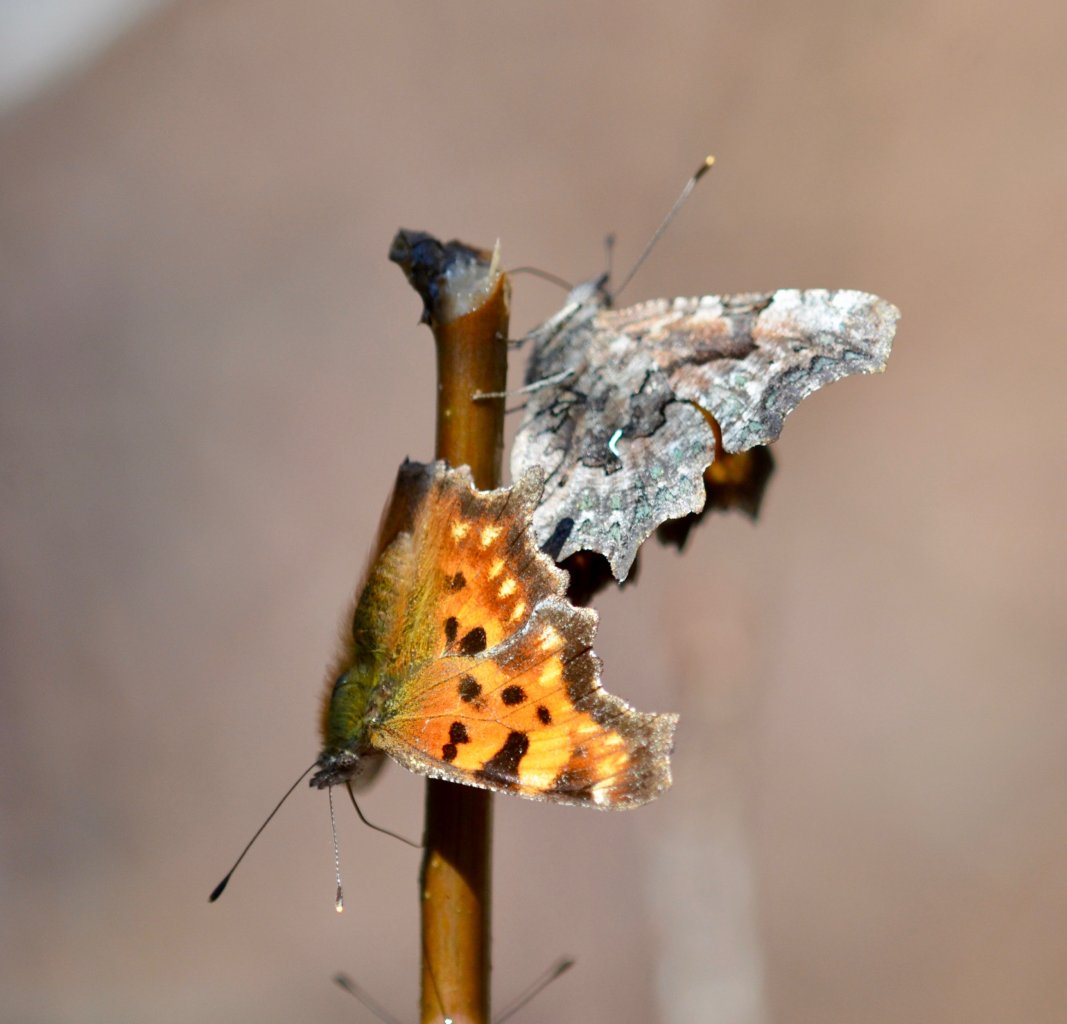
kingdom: Animalia
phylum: Arthropoda
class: Insecta
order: Lepidoptera
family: Nymphalidae
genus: Polygonia
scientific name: Polygonia faunus
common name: Green Comma
